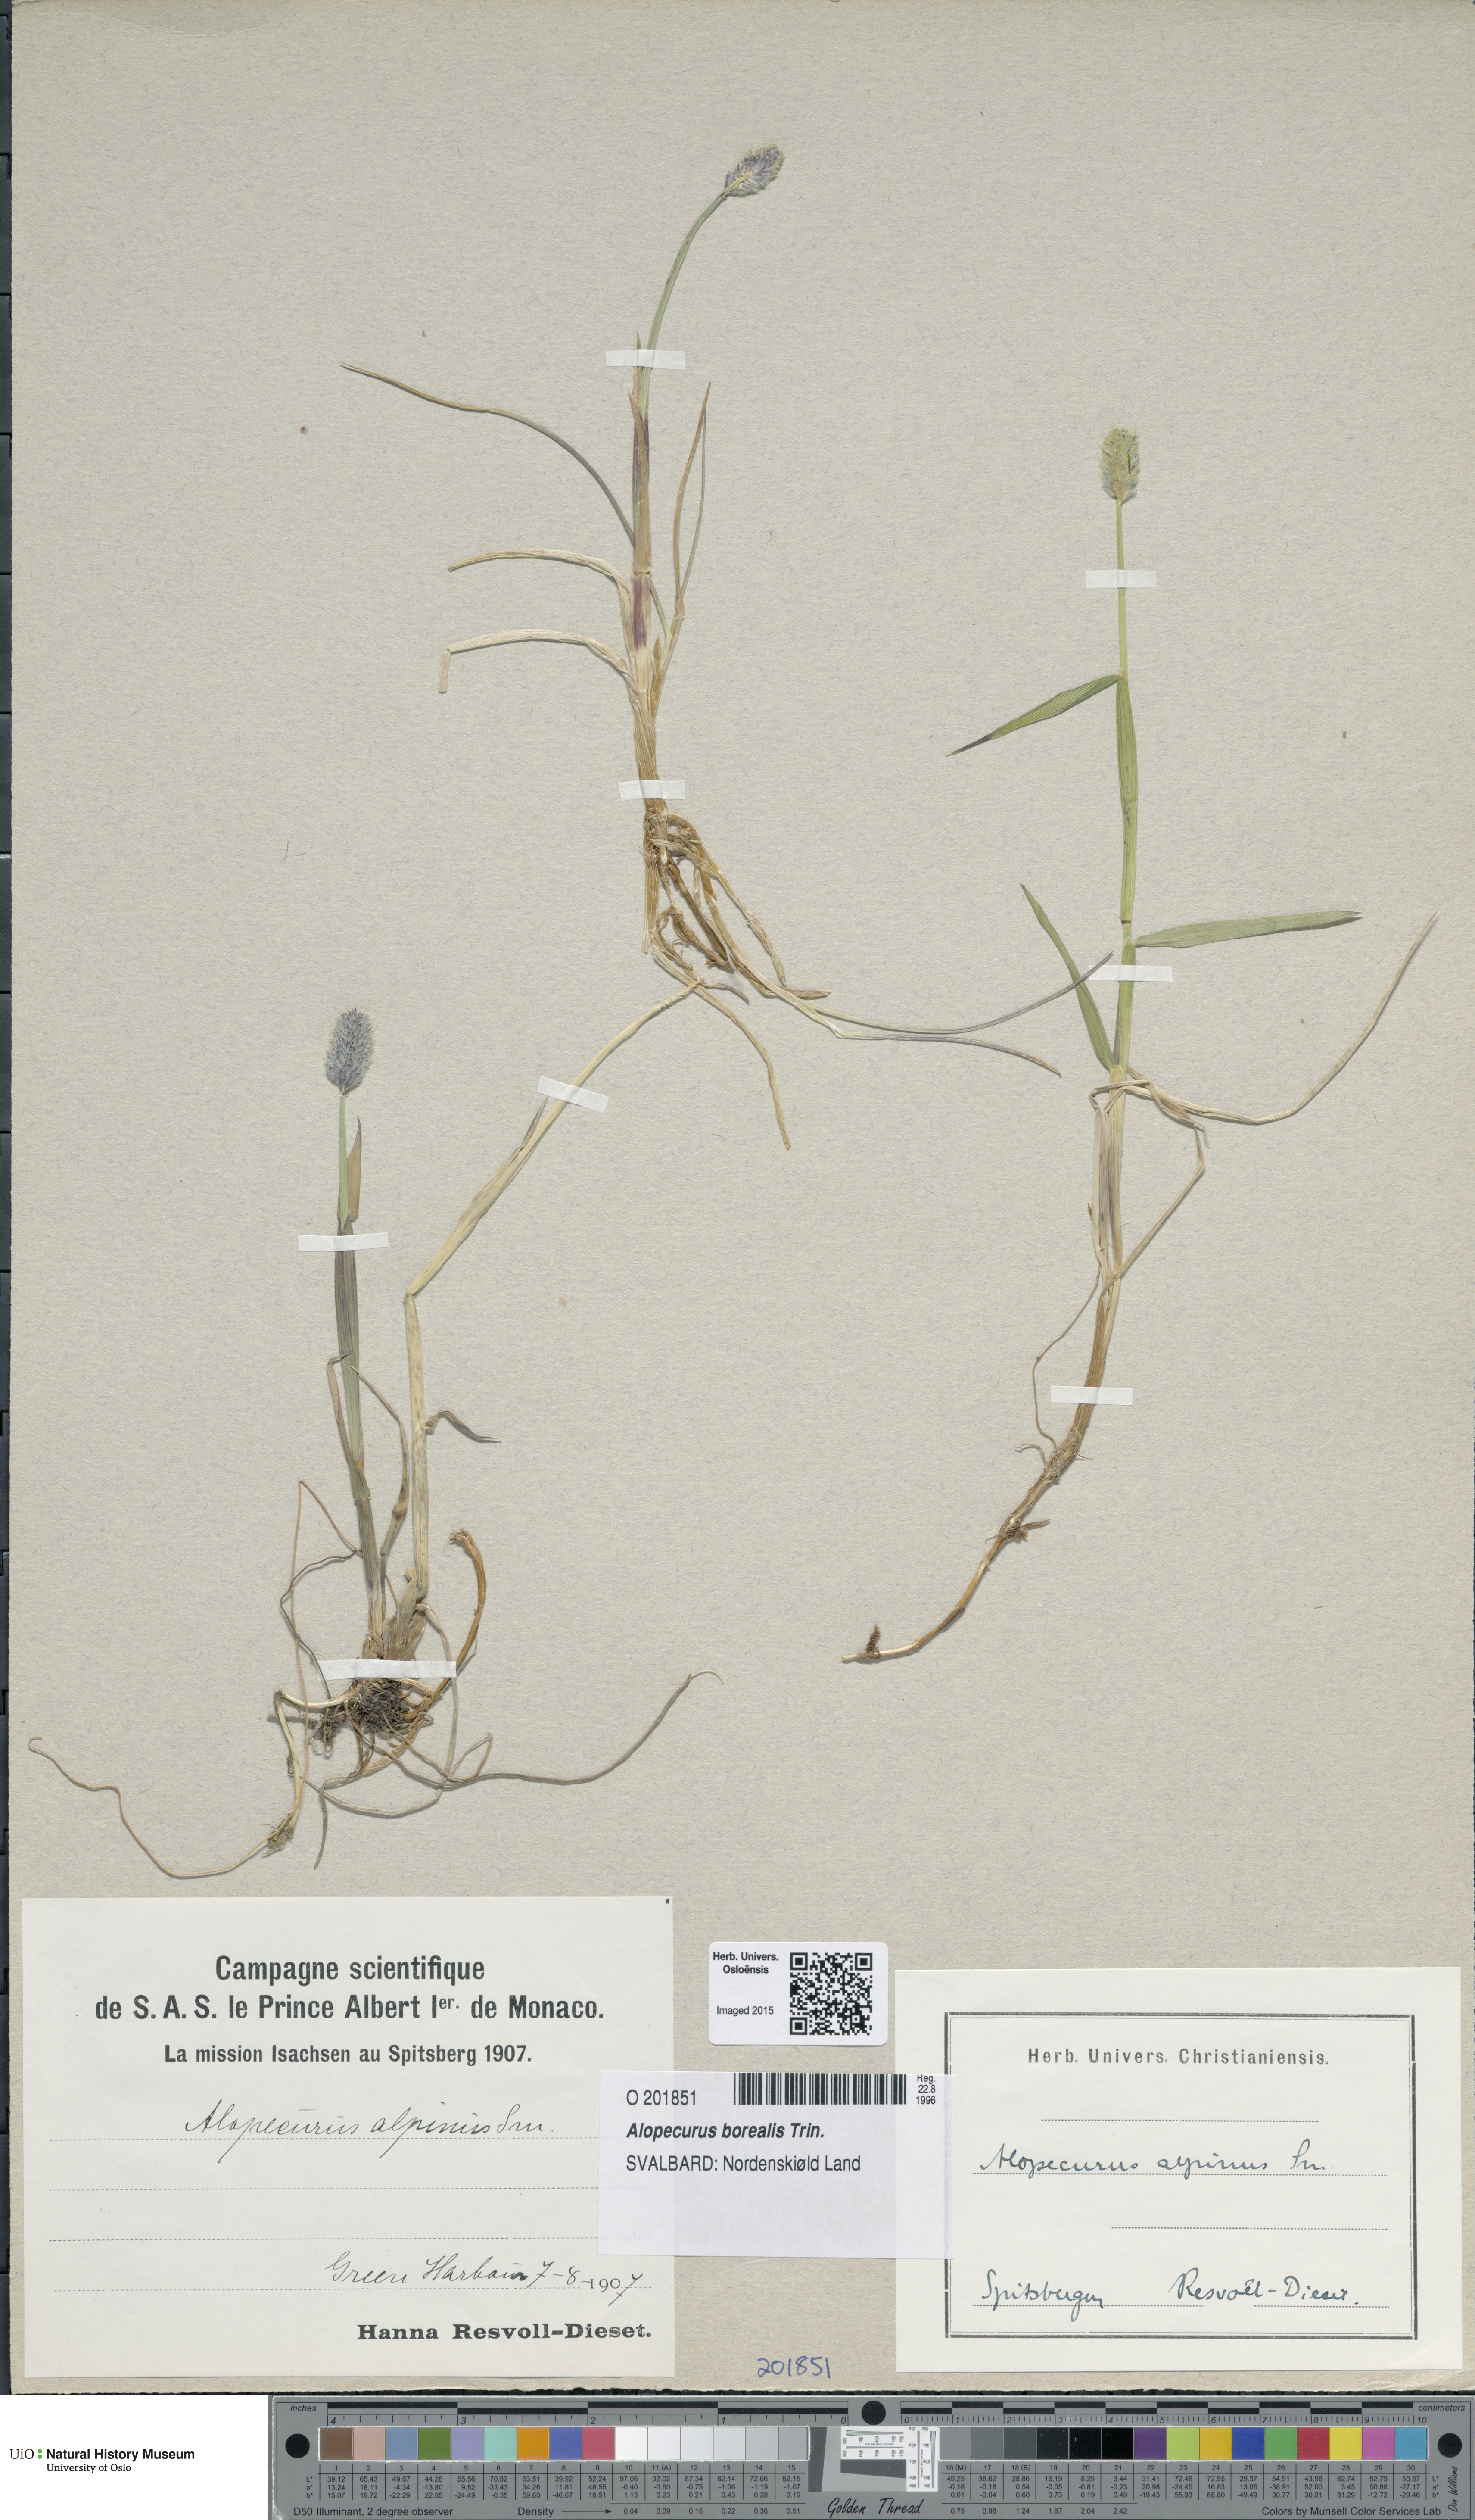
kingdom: Plantae
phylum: Tracheophyta
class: Liliopsida
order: Poales
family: Poaceae
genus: Alopecurus
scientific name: Alopecurus magellanicus
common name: Alpine foxtail
